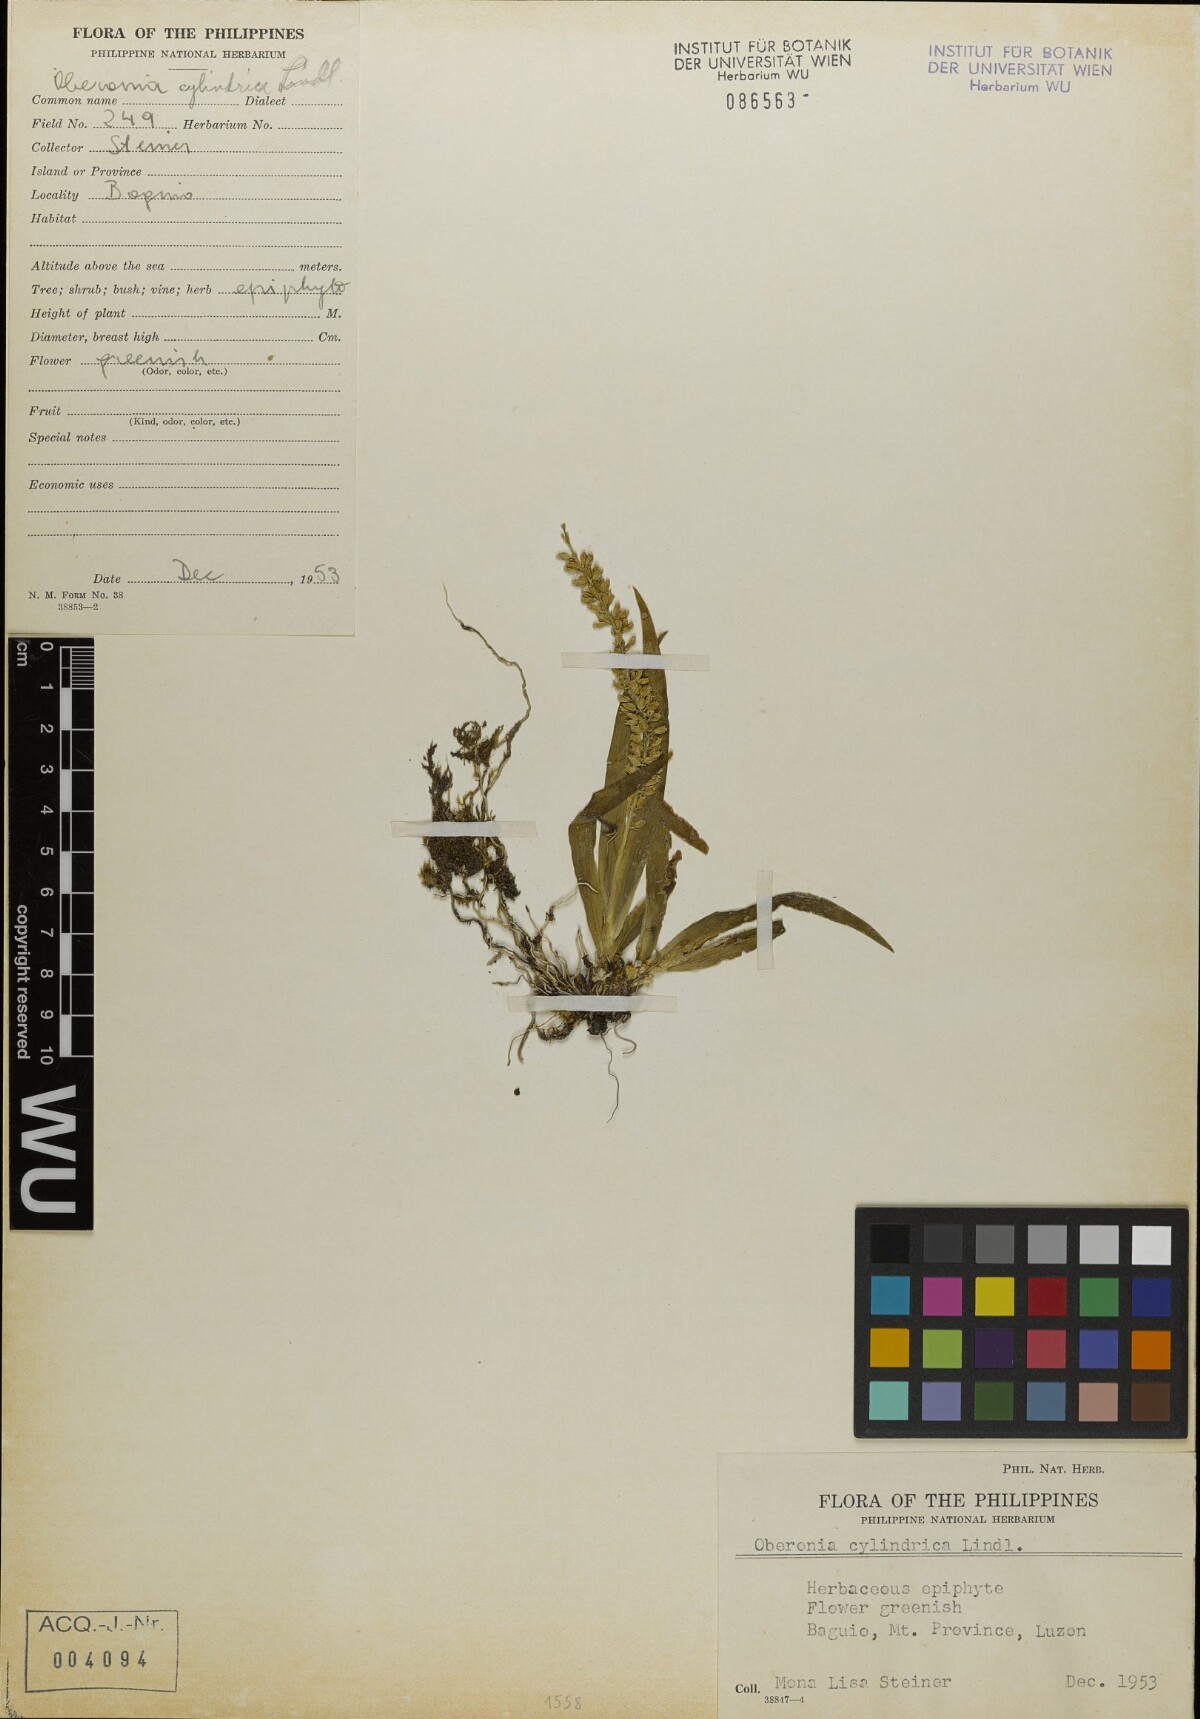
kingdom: Plantae
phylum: Tracheophyta
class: Liliopsida
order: Asparagales
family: Orchidaceae
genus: Oberonia
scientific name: Oberonia punctata
